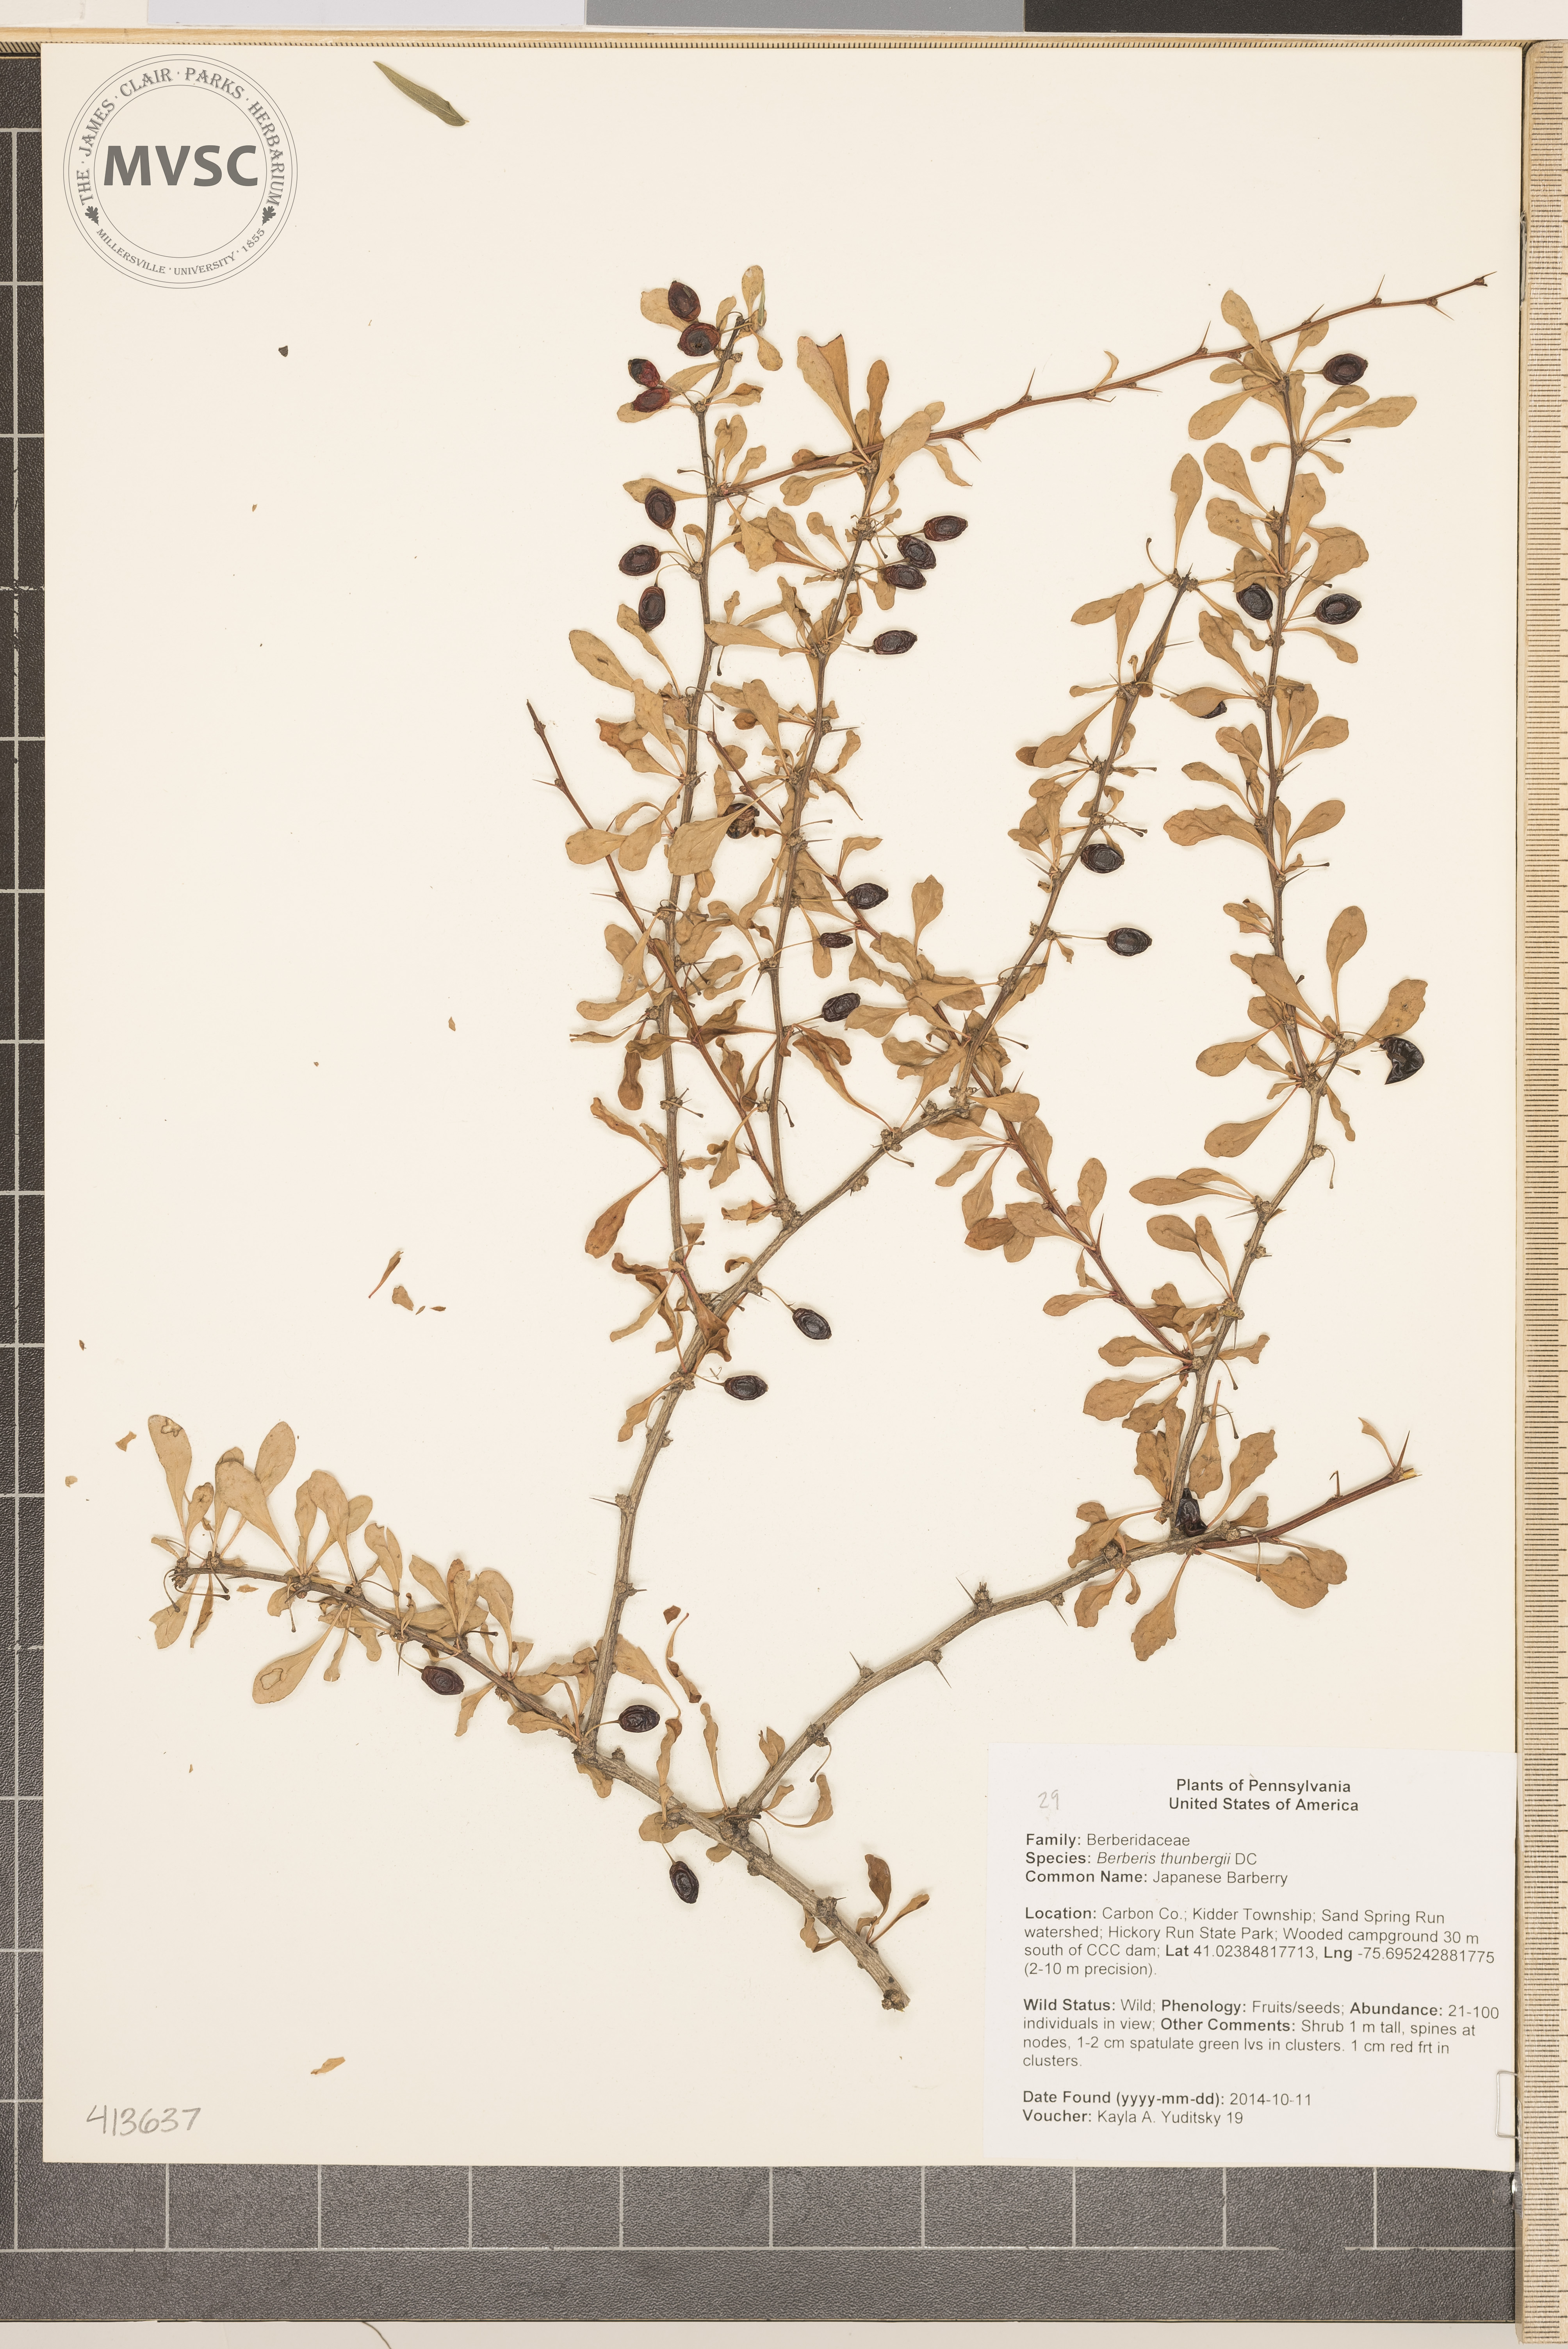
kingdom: Plantae
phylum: Tracheophyta
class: Magnoliopsida
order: Ranunculales
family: Berberidaceae
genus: Berberis
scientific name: Berberis thunbergii
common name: Japanese Barberry
